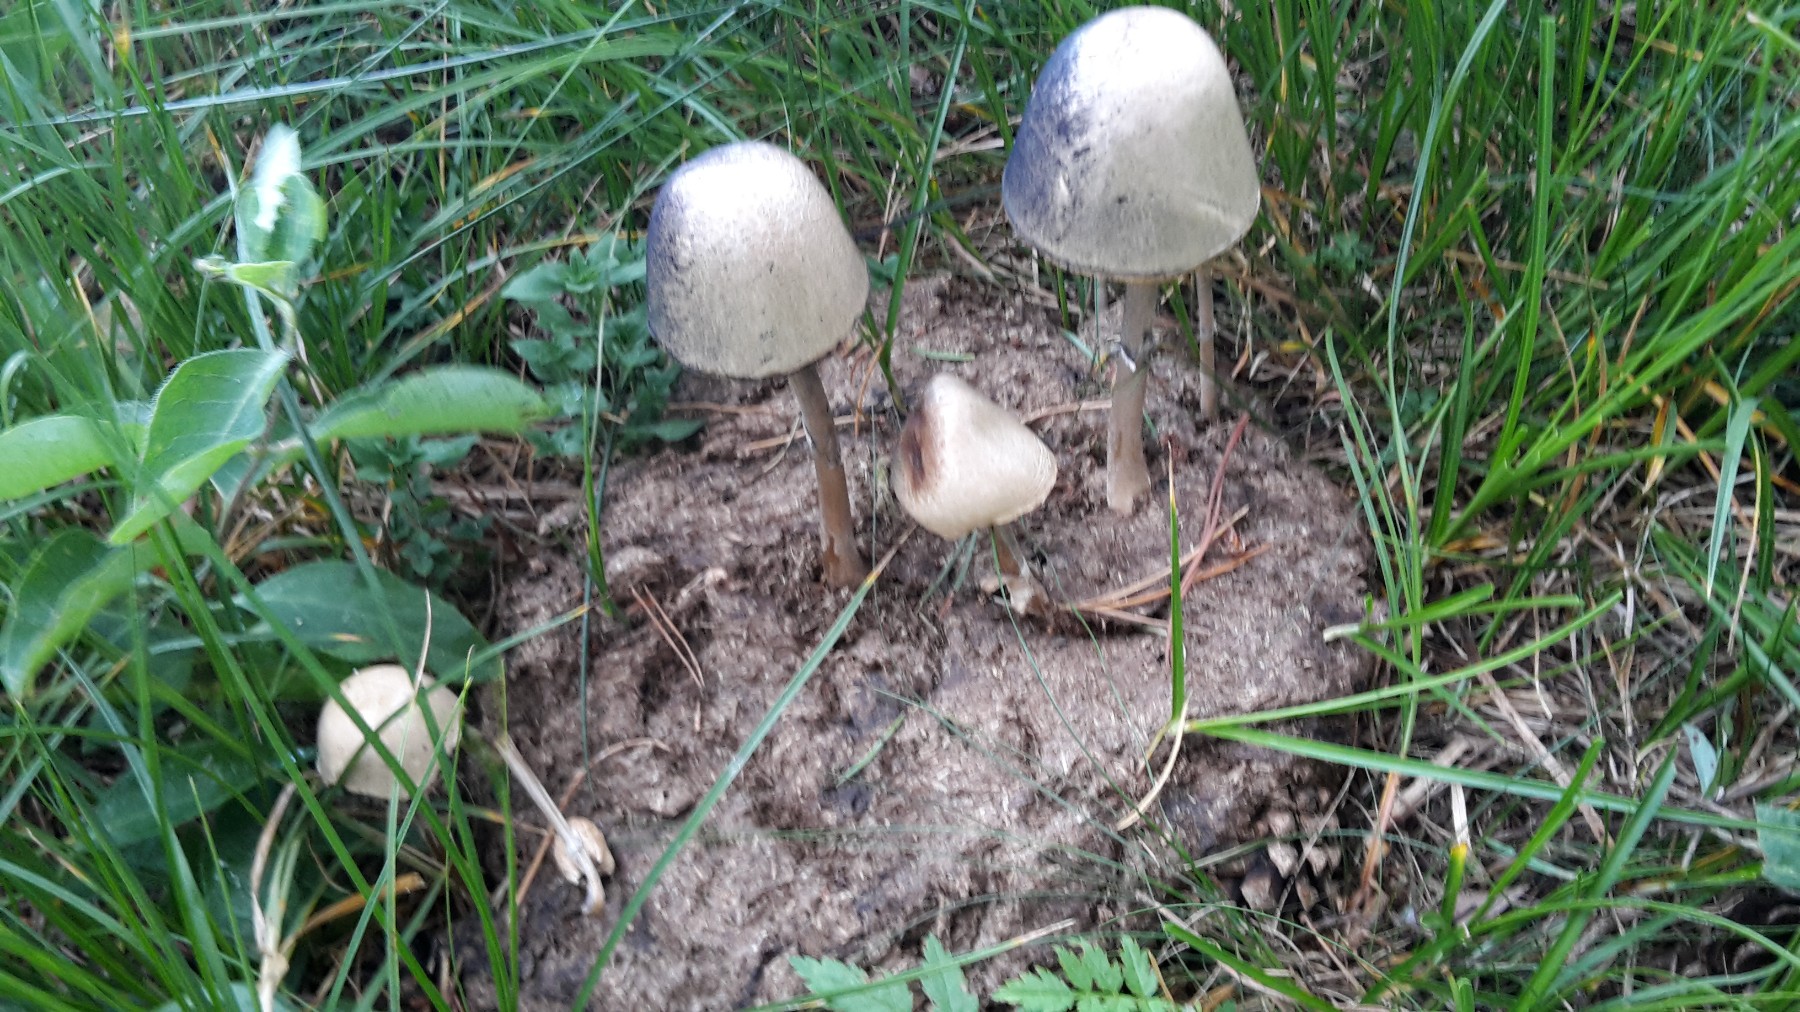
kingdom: Fungi
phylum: Basidiomycota
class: Agaricomycetes
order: Agaricales
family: Bolbitiaceae
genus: Panaeolus
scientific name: Panaeolus semiovatus
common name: ring-glanshat
